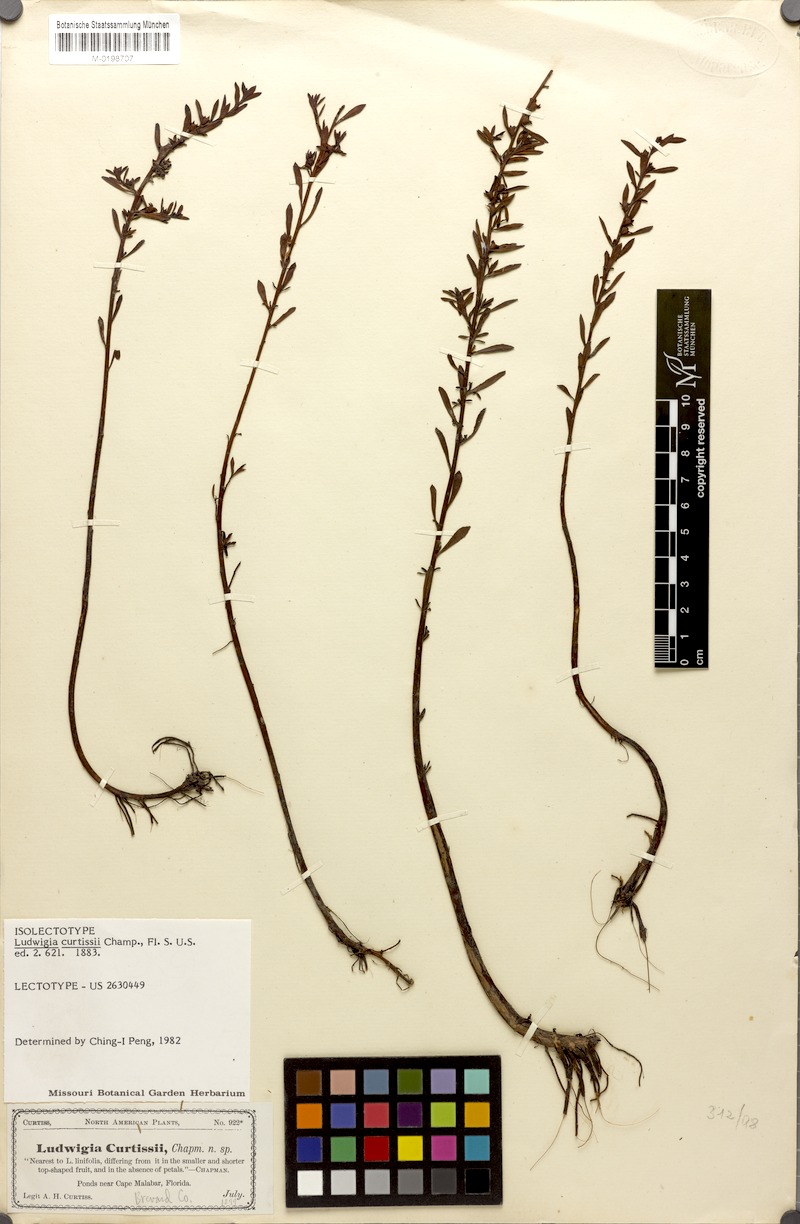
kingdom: Plantae
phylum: Tracheophyta
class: Magnoliopsida
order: Myrtales
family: Onagraceae
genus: Ludwigia
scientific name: Ludwigia curtissii
